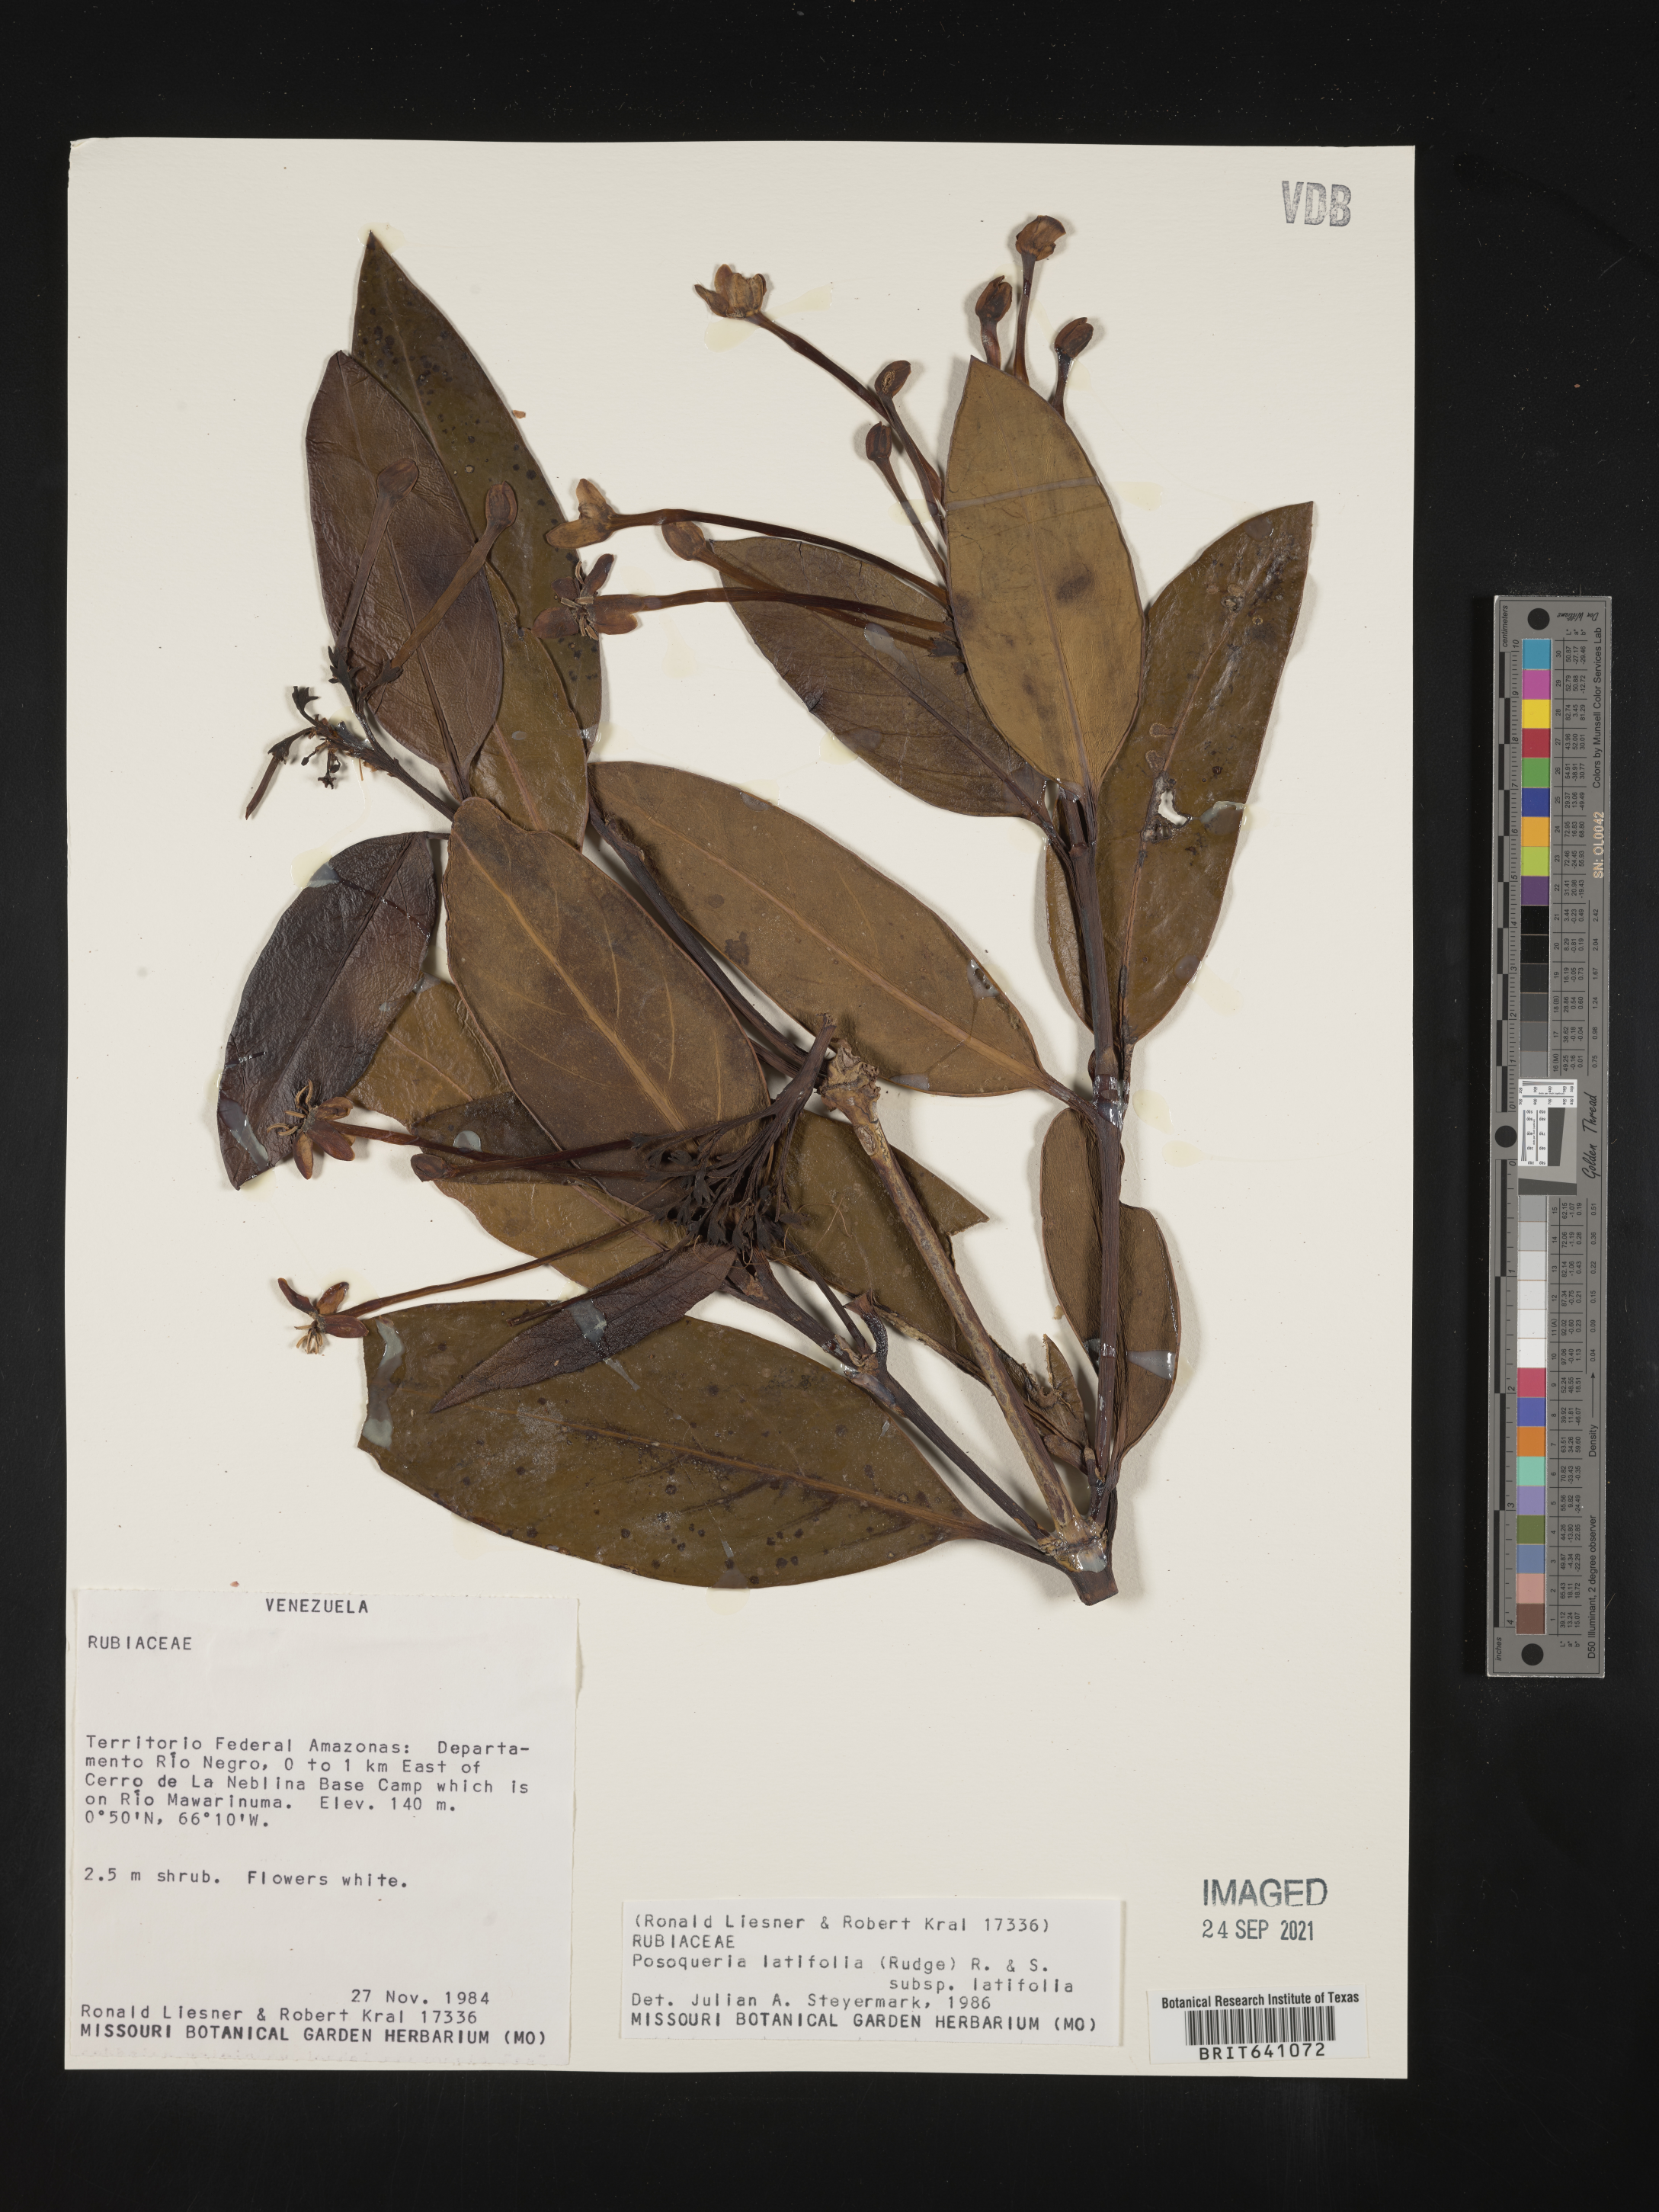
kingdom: Plantae
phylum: Tracheophyta
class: Magnoliopsida
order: Gentianales
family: Rubiaceae
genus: Posoqueria
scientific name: Posoqueria
